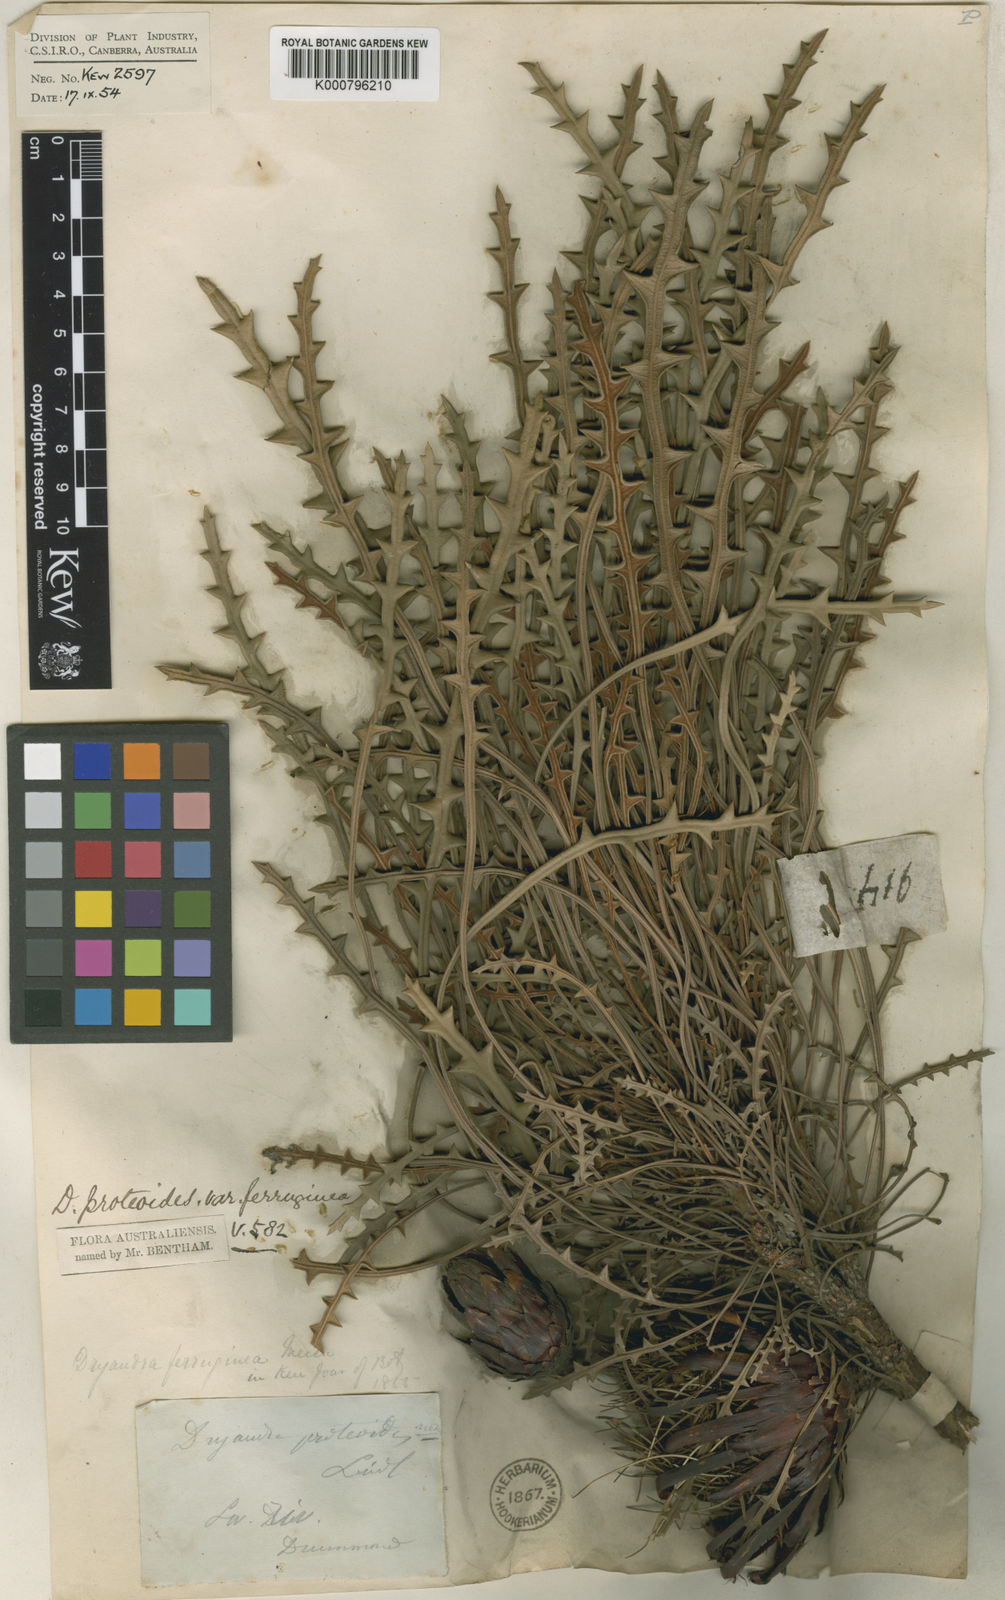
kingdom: Plantae
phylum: Tracheophyta
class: Magnoliopsida
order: Proteales
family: Proteaceae
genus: Banksia
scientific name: Banksia rufa
